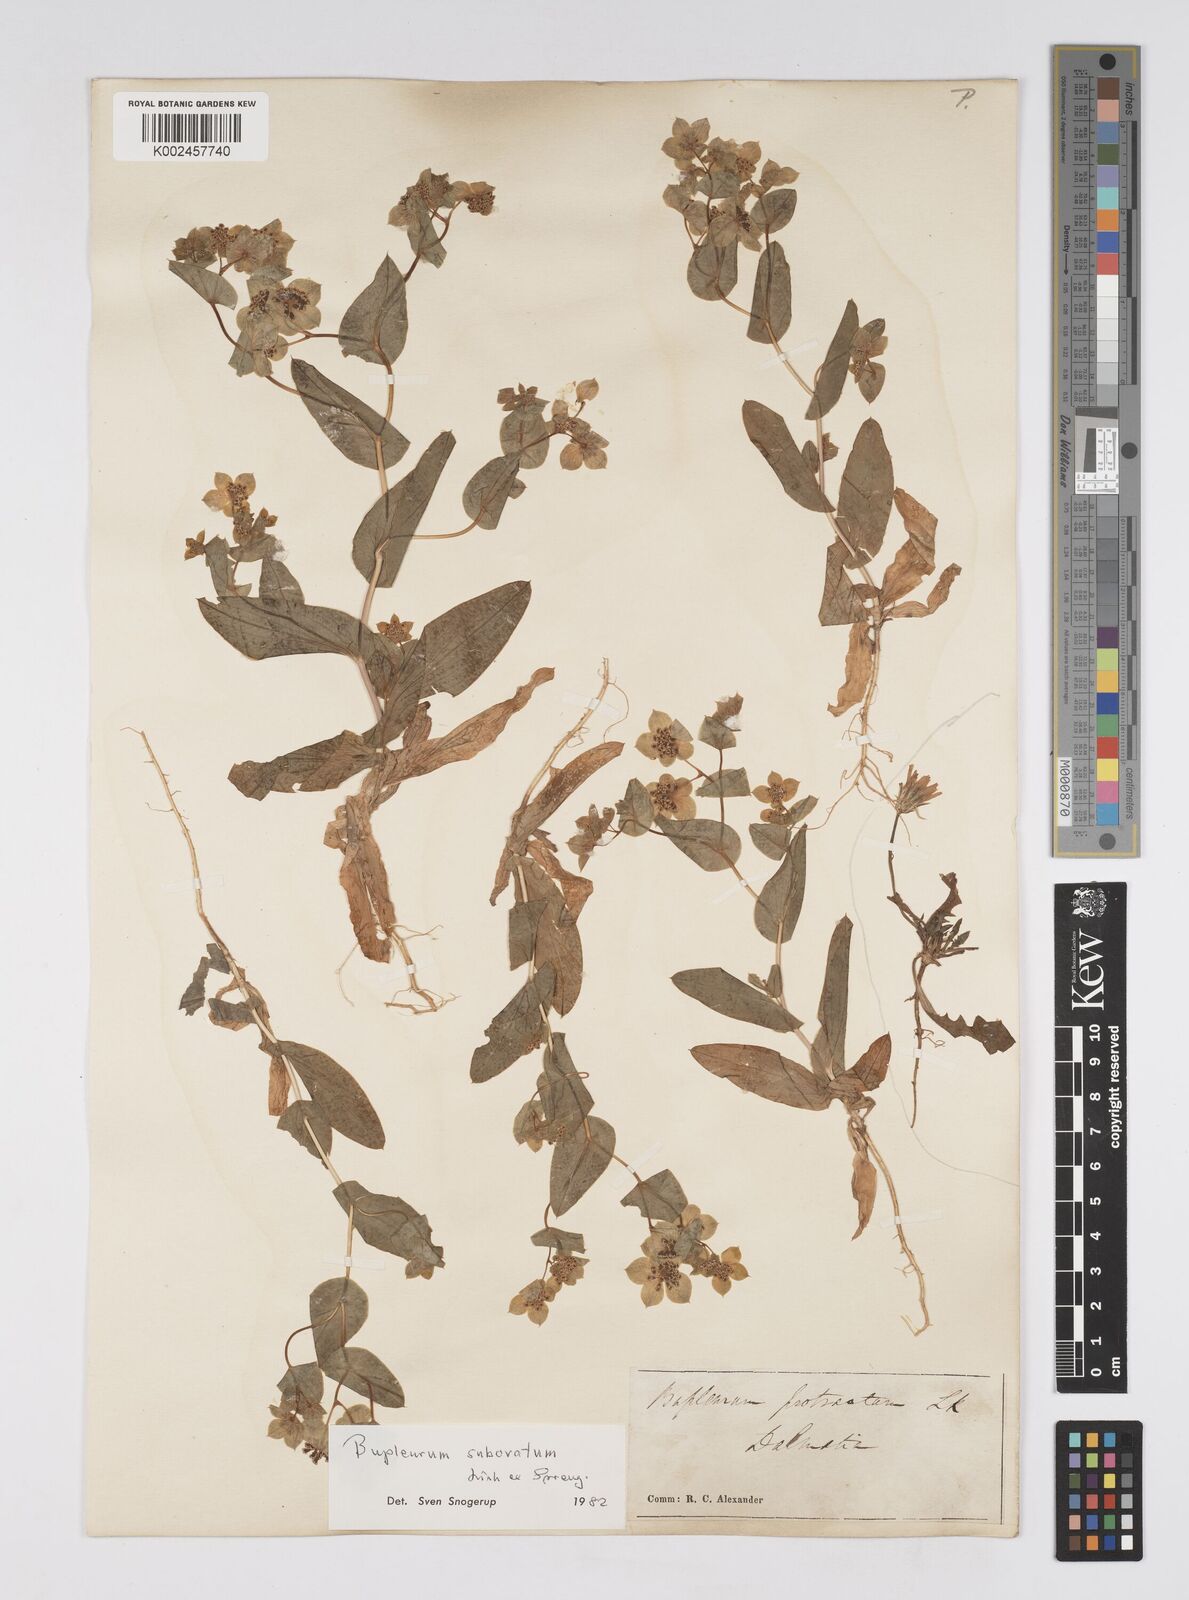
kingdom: Plantae
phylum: Tracheophyta
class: Magnoliopsida
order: Apiales
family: Apiaceae
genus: Bupleurum
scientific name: Bupleurum subovatum
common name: False thorow-wax
